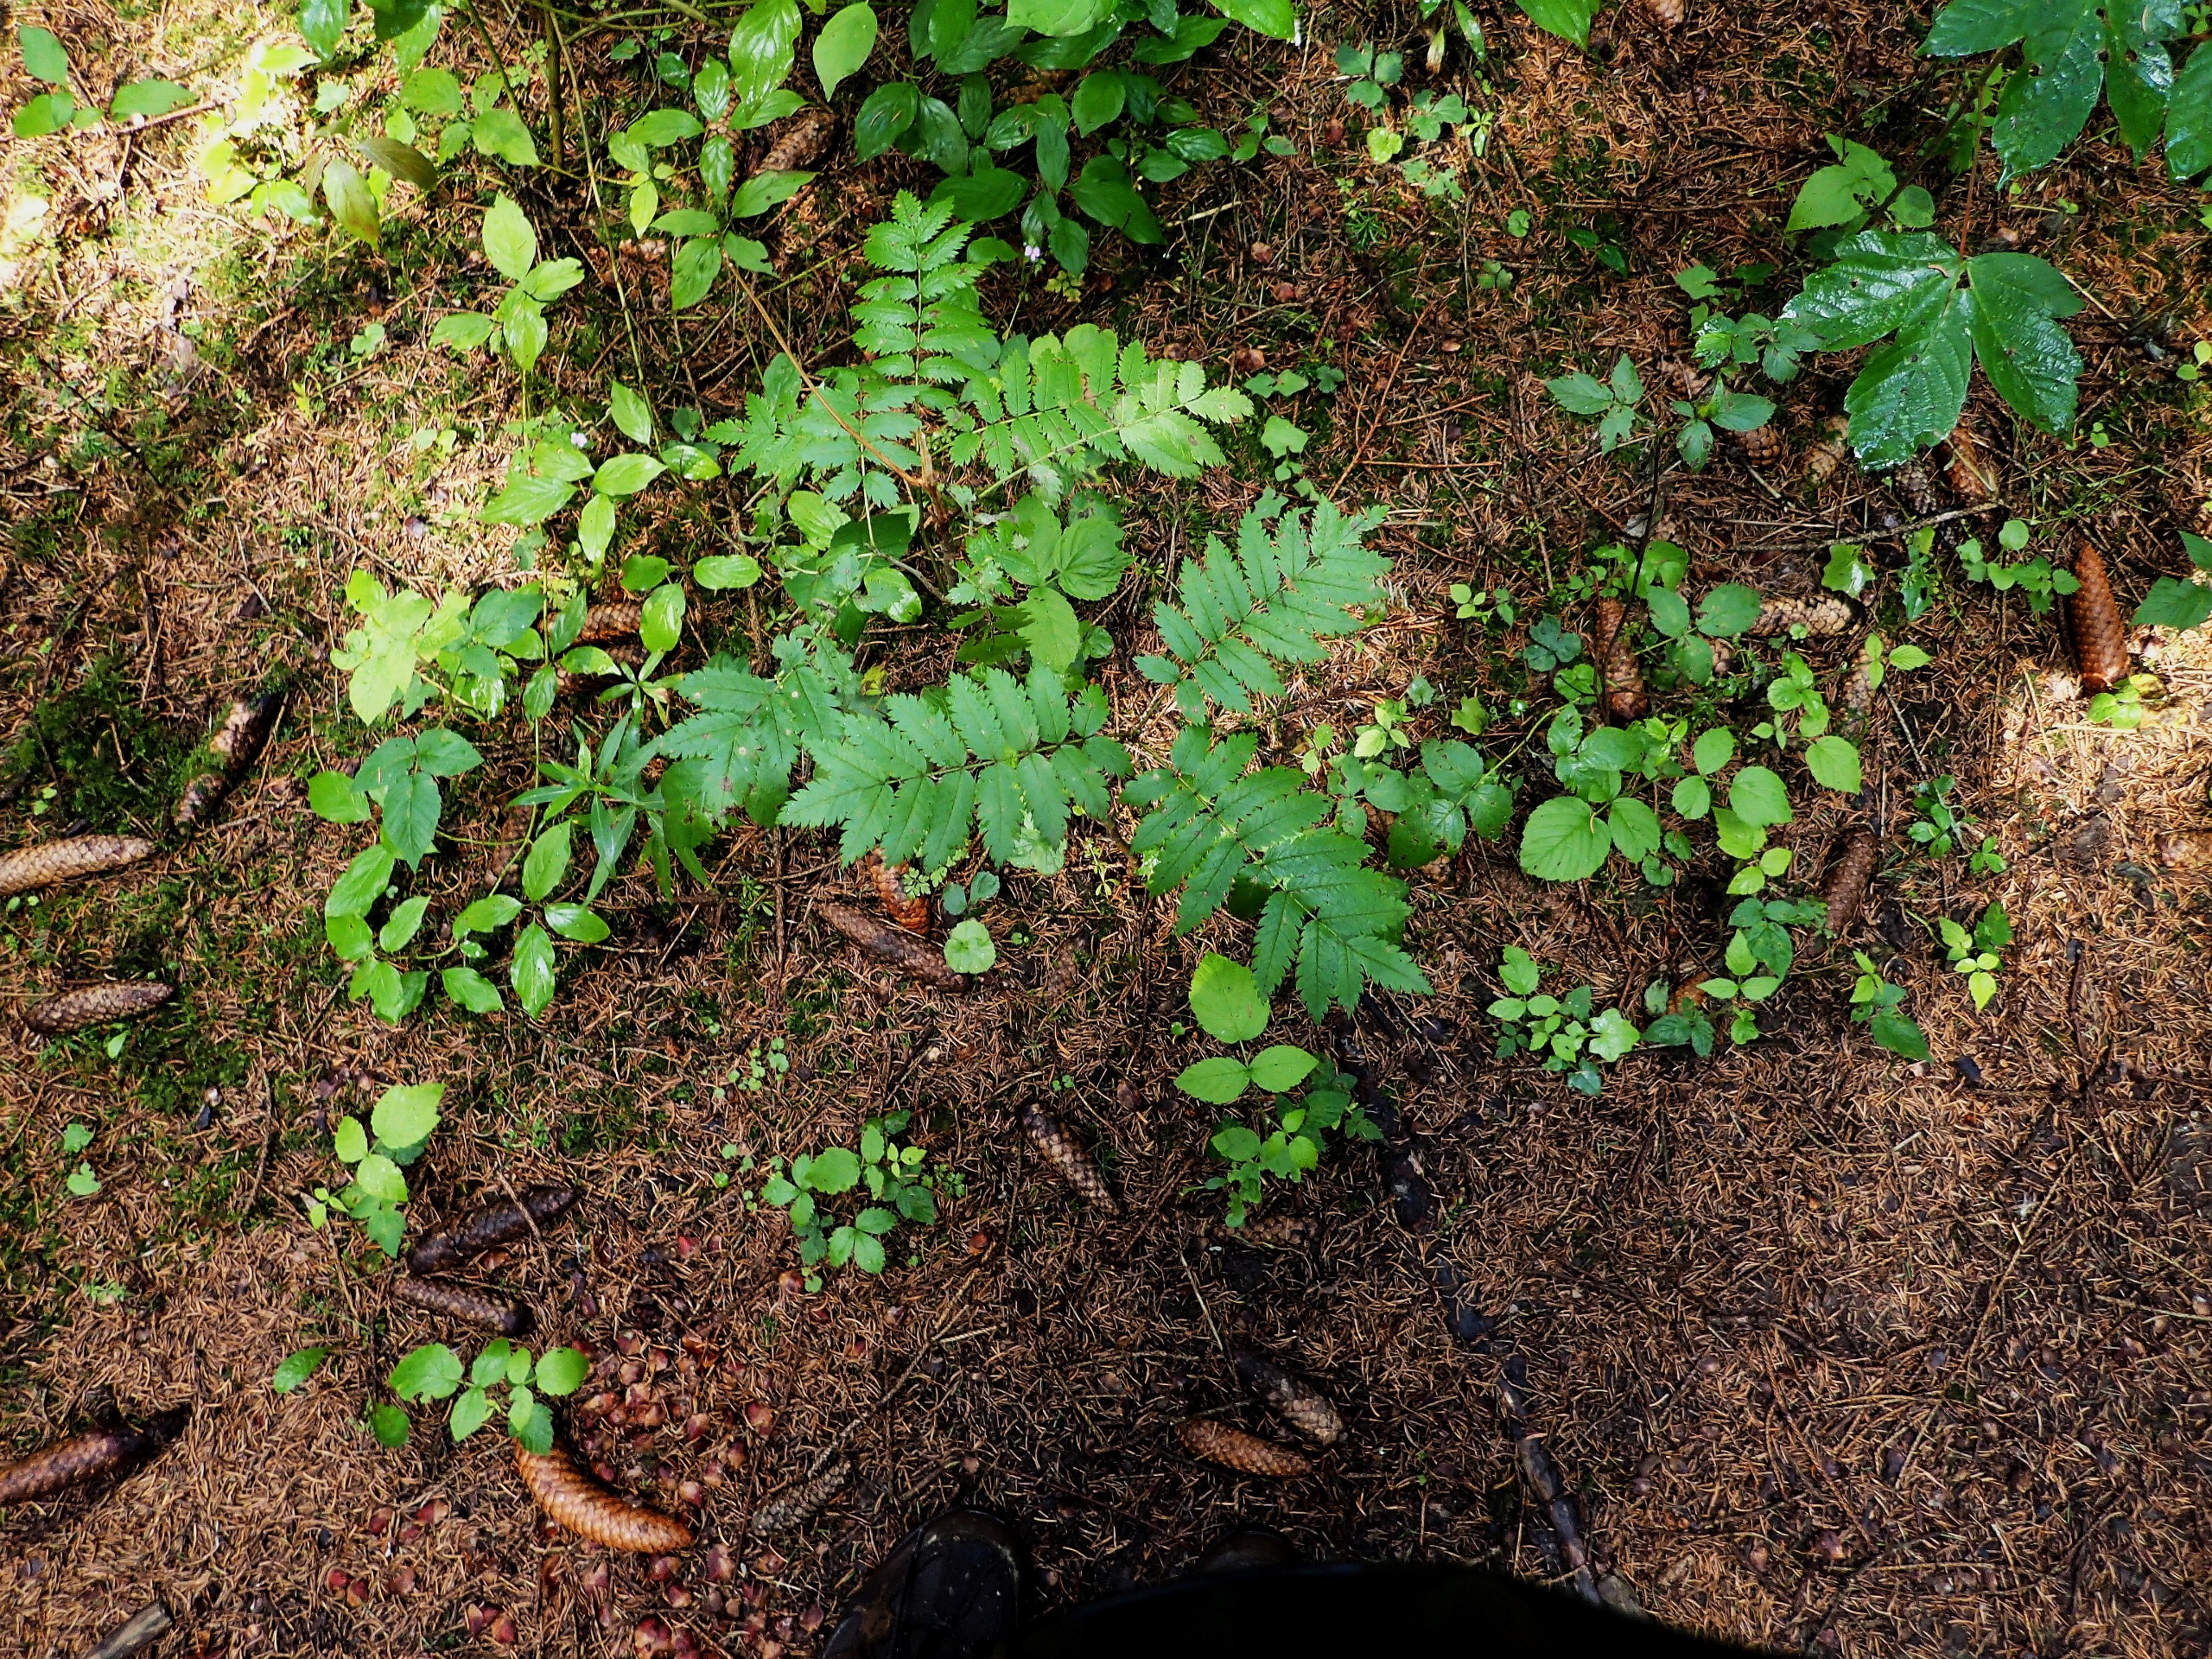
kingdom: Plantae
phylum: Tracheophyta
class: Magnoliopsida
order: Rosales
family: Rosaceae
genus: Sorbus
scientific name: Sorbus aucuparia
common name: Almindelig røn
